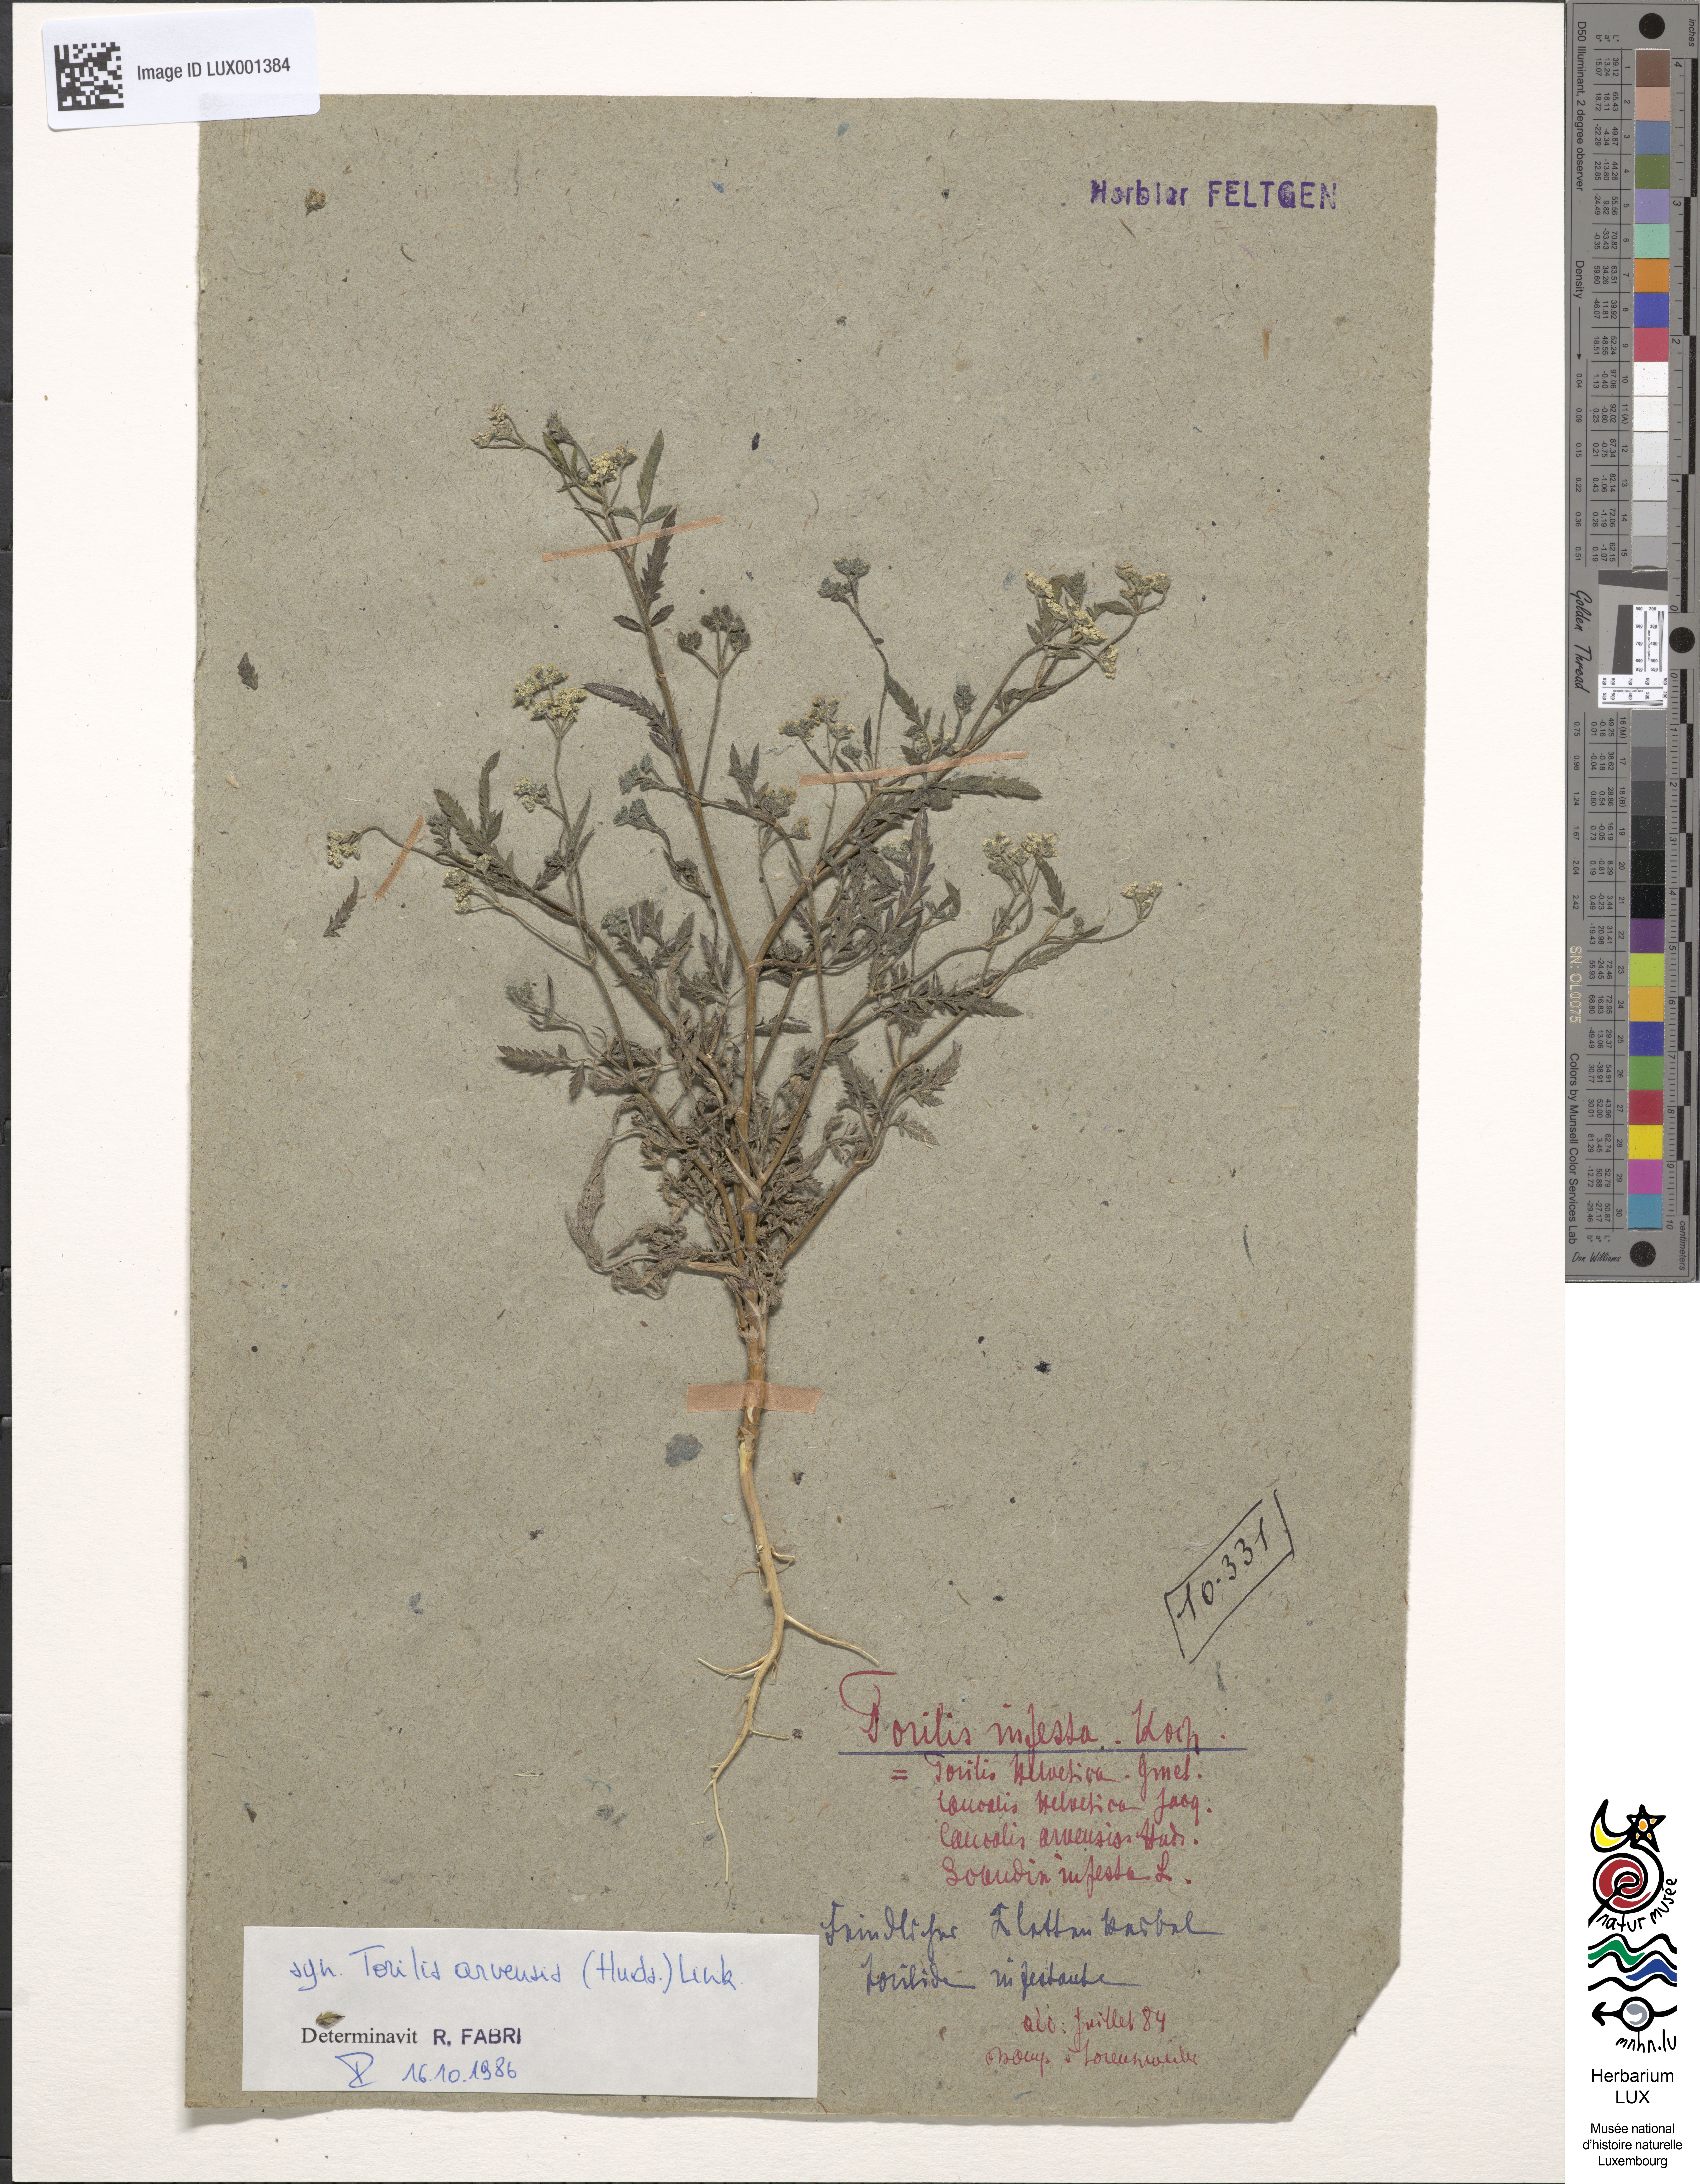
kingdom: Plantae
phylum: Tracheophyta
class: Magnoliopsida
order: Apiales
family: Apiaceae
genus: Torilis
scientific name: Torilis arvensis
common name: Spreading hedge-parsley
